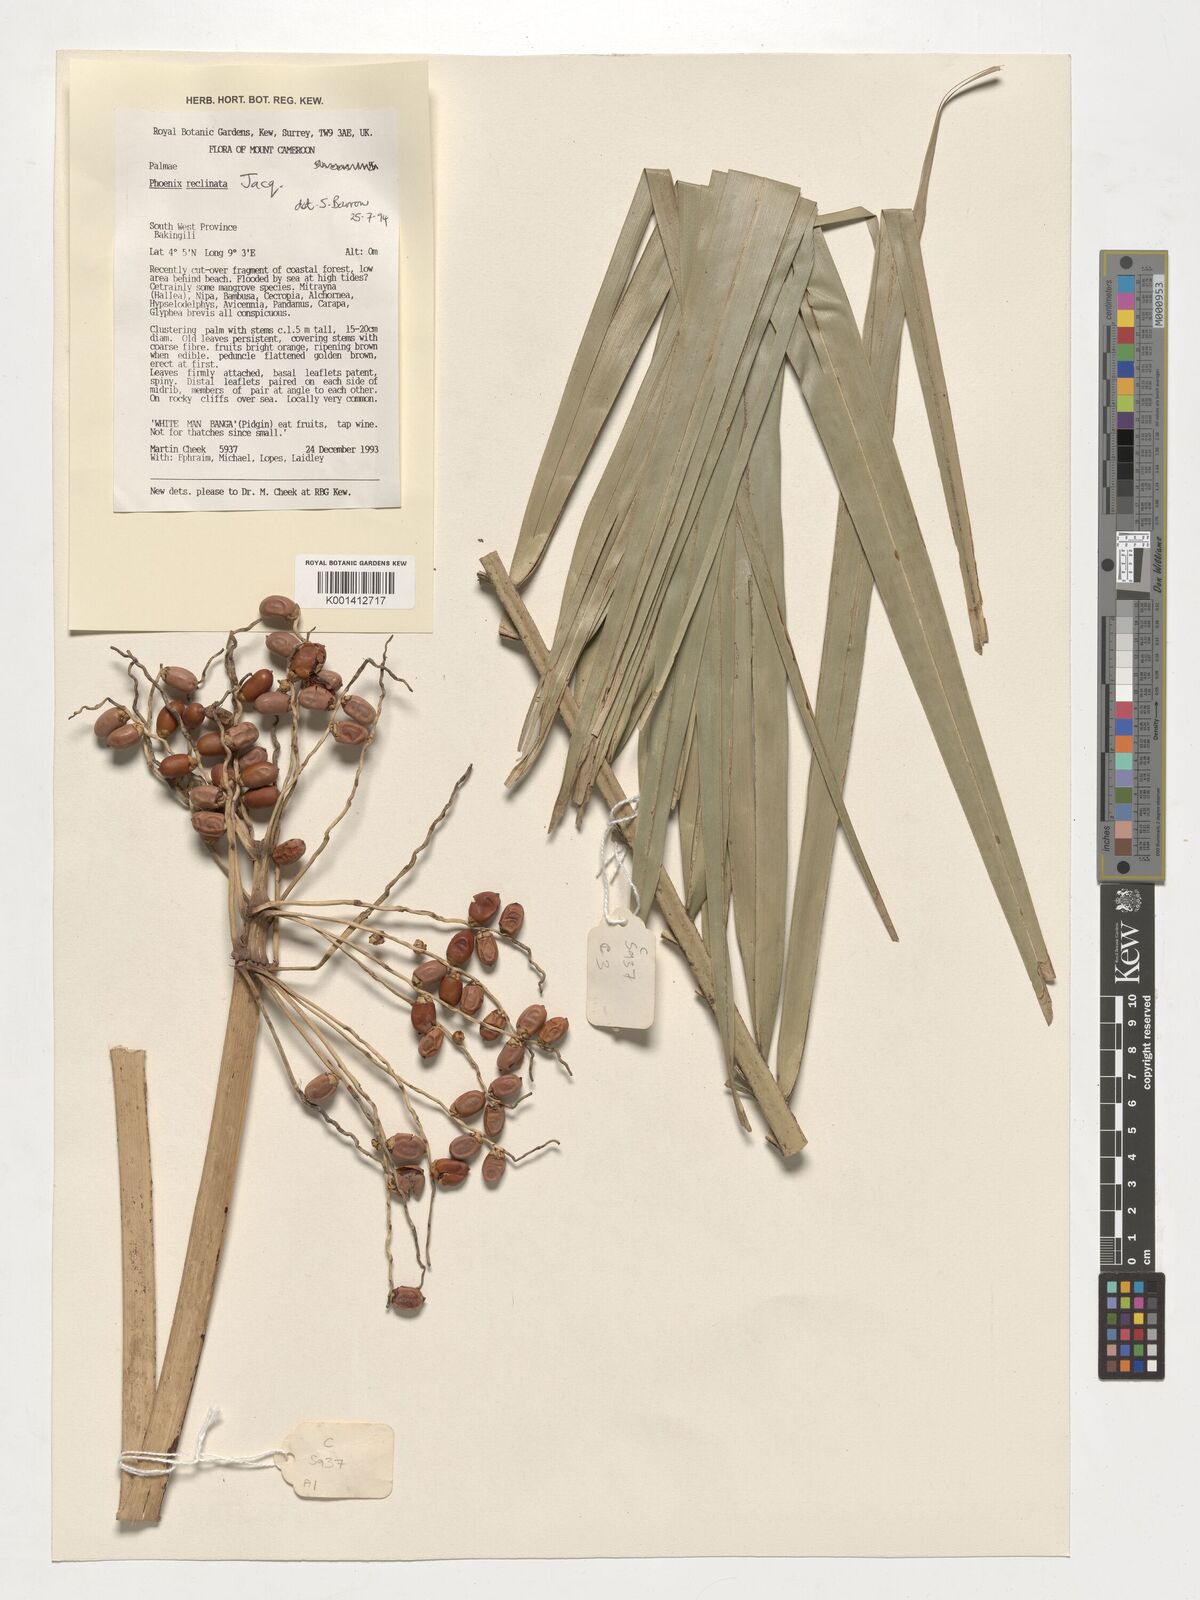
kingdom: Plantae
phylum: Tracheophyta
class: Liliopsida
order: Arecales
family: Arecaceae
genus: Phoenix
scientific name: Phoenix reclinata
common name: Senegal date palm
